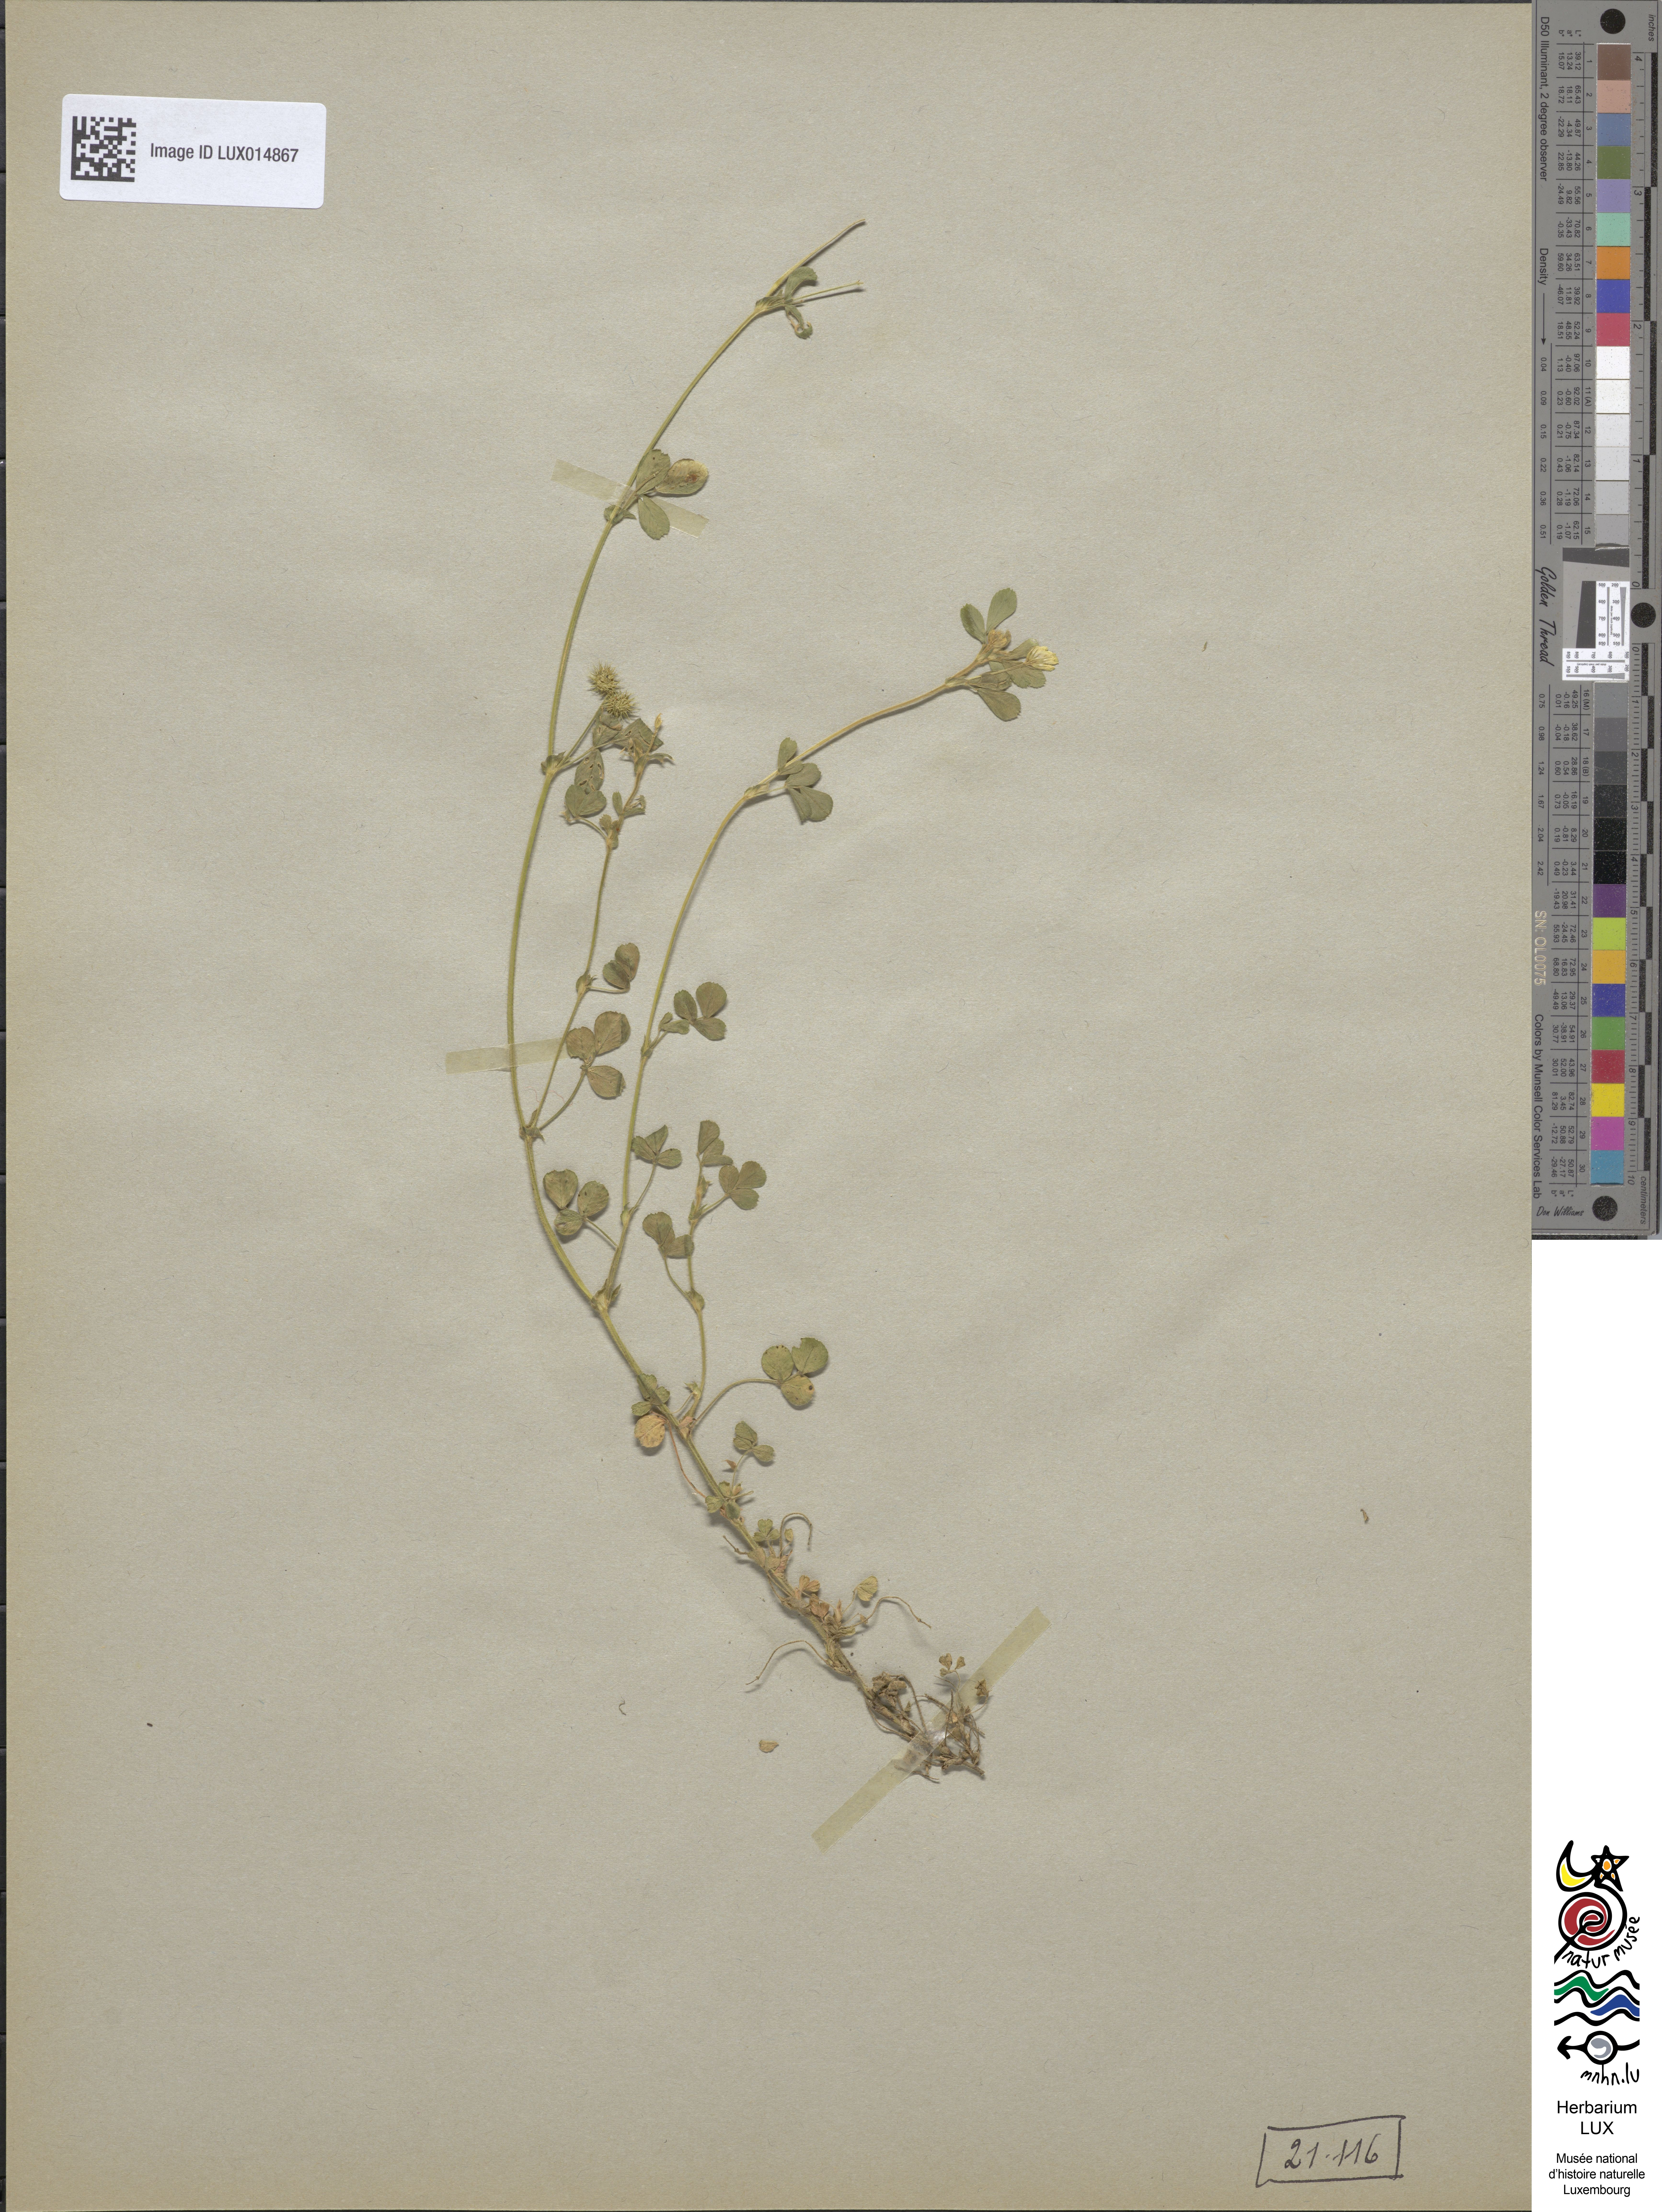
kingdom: Plantae
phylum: Tracheophyta
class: Magnoliopsida
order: Fabales
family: Fabaceae
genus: Medicago
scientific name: Medicago minima
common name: Little bur-clover
